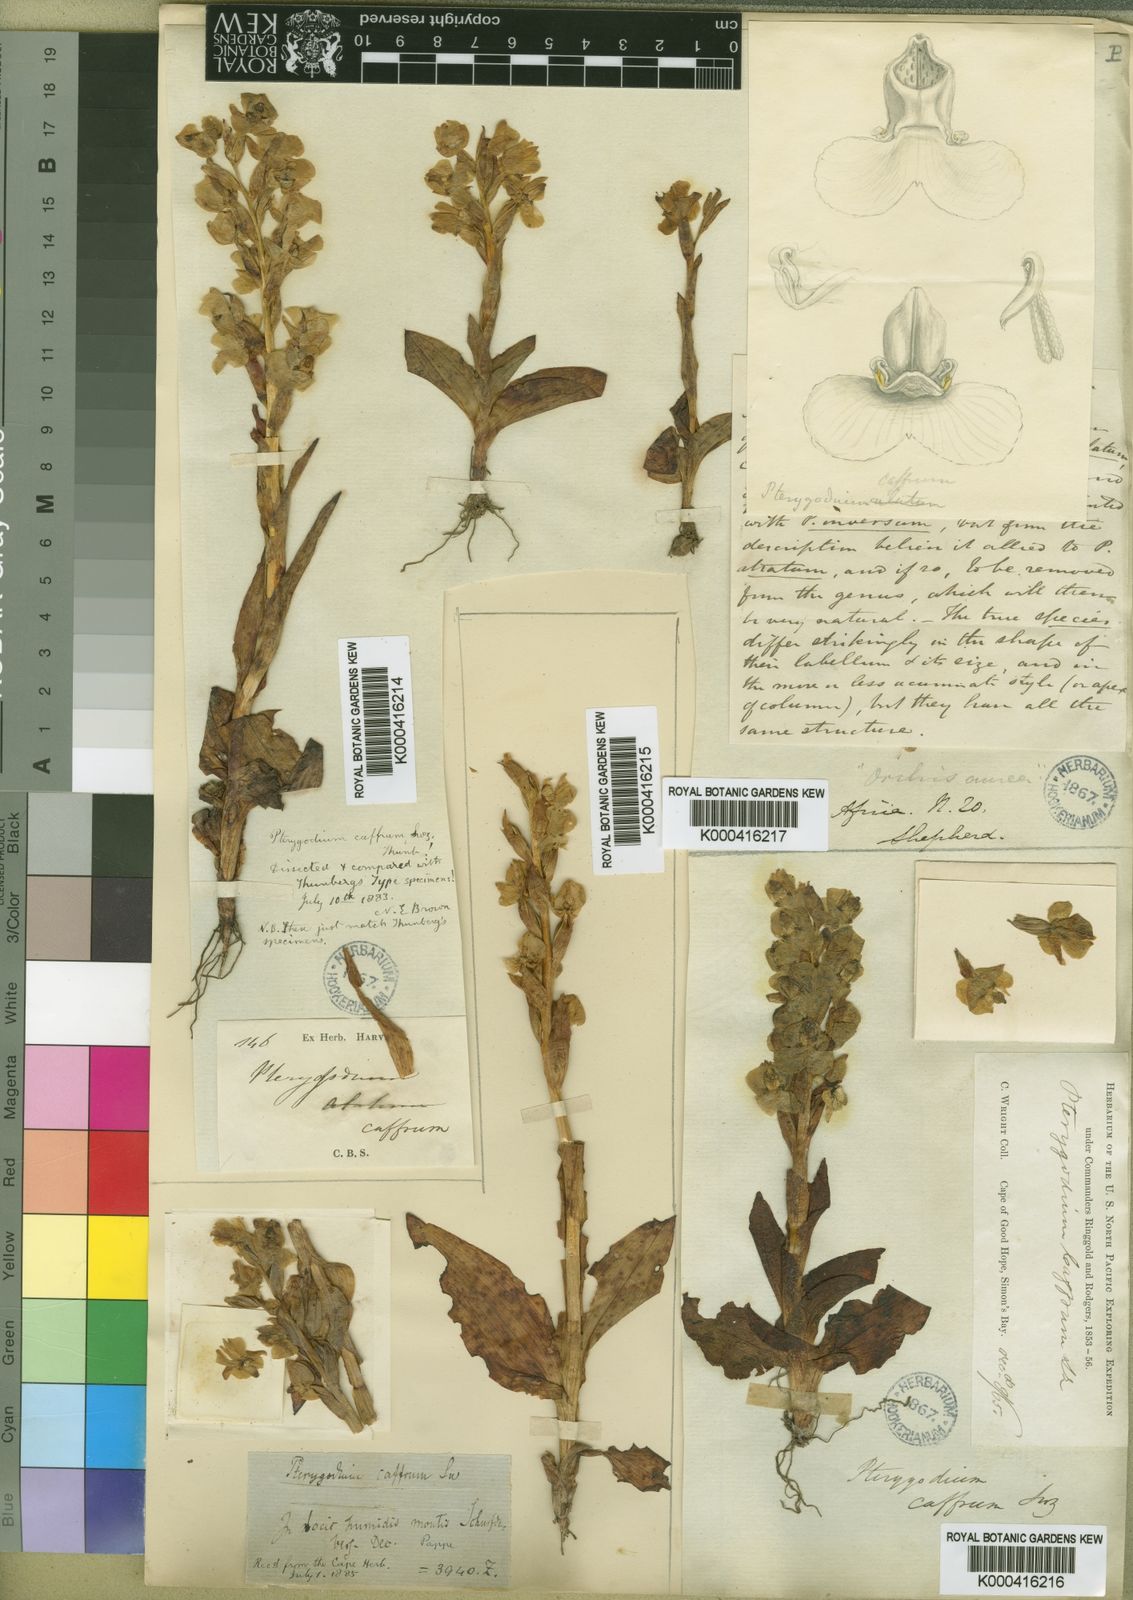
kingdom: Plantae
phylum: Tracheophyta
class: Liliopsida
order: Asparagales
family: Orchidaceae
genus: Pterygodium
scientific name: Pterygodium caffrum
